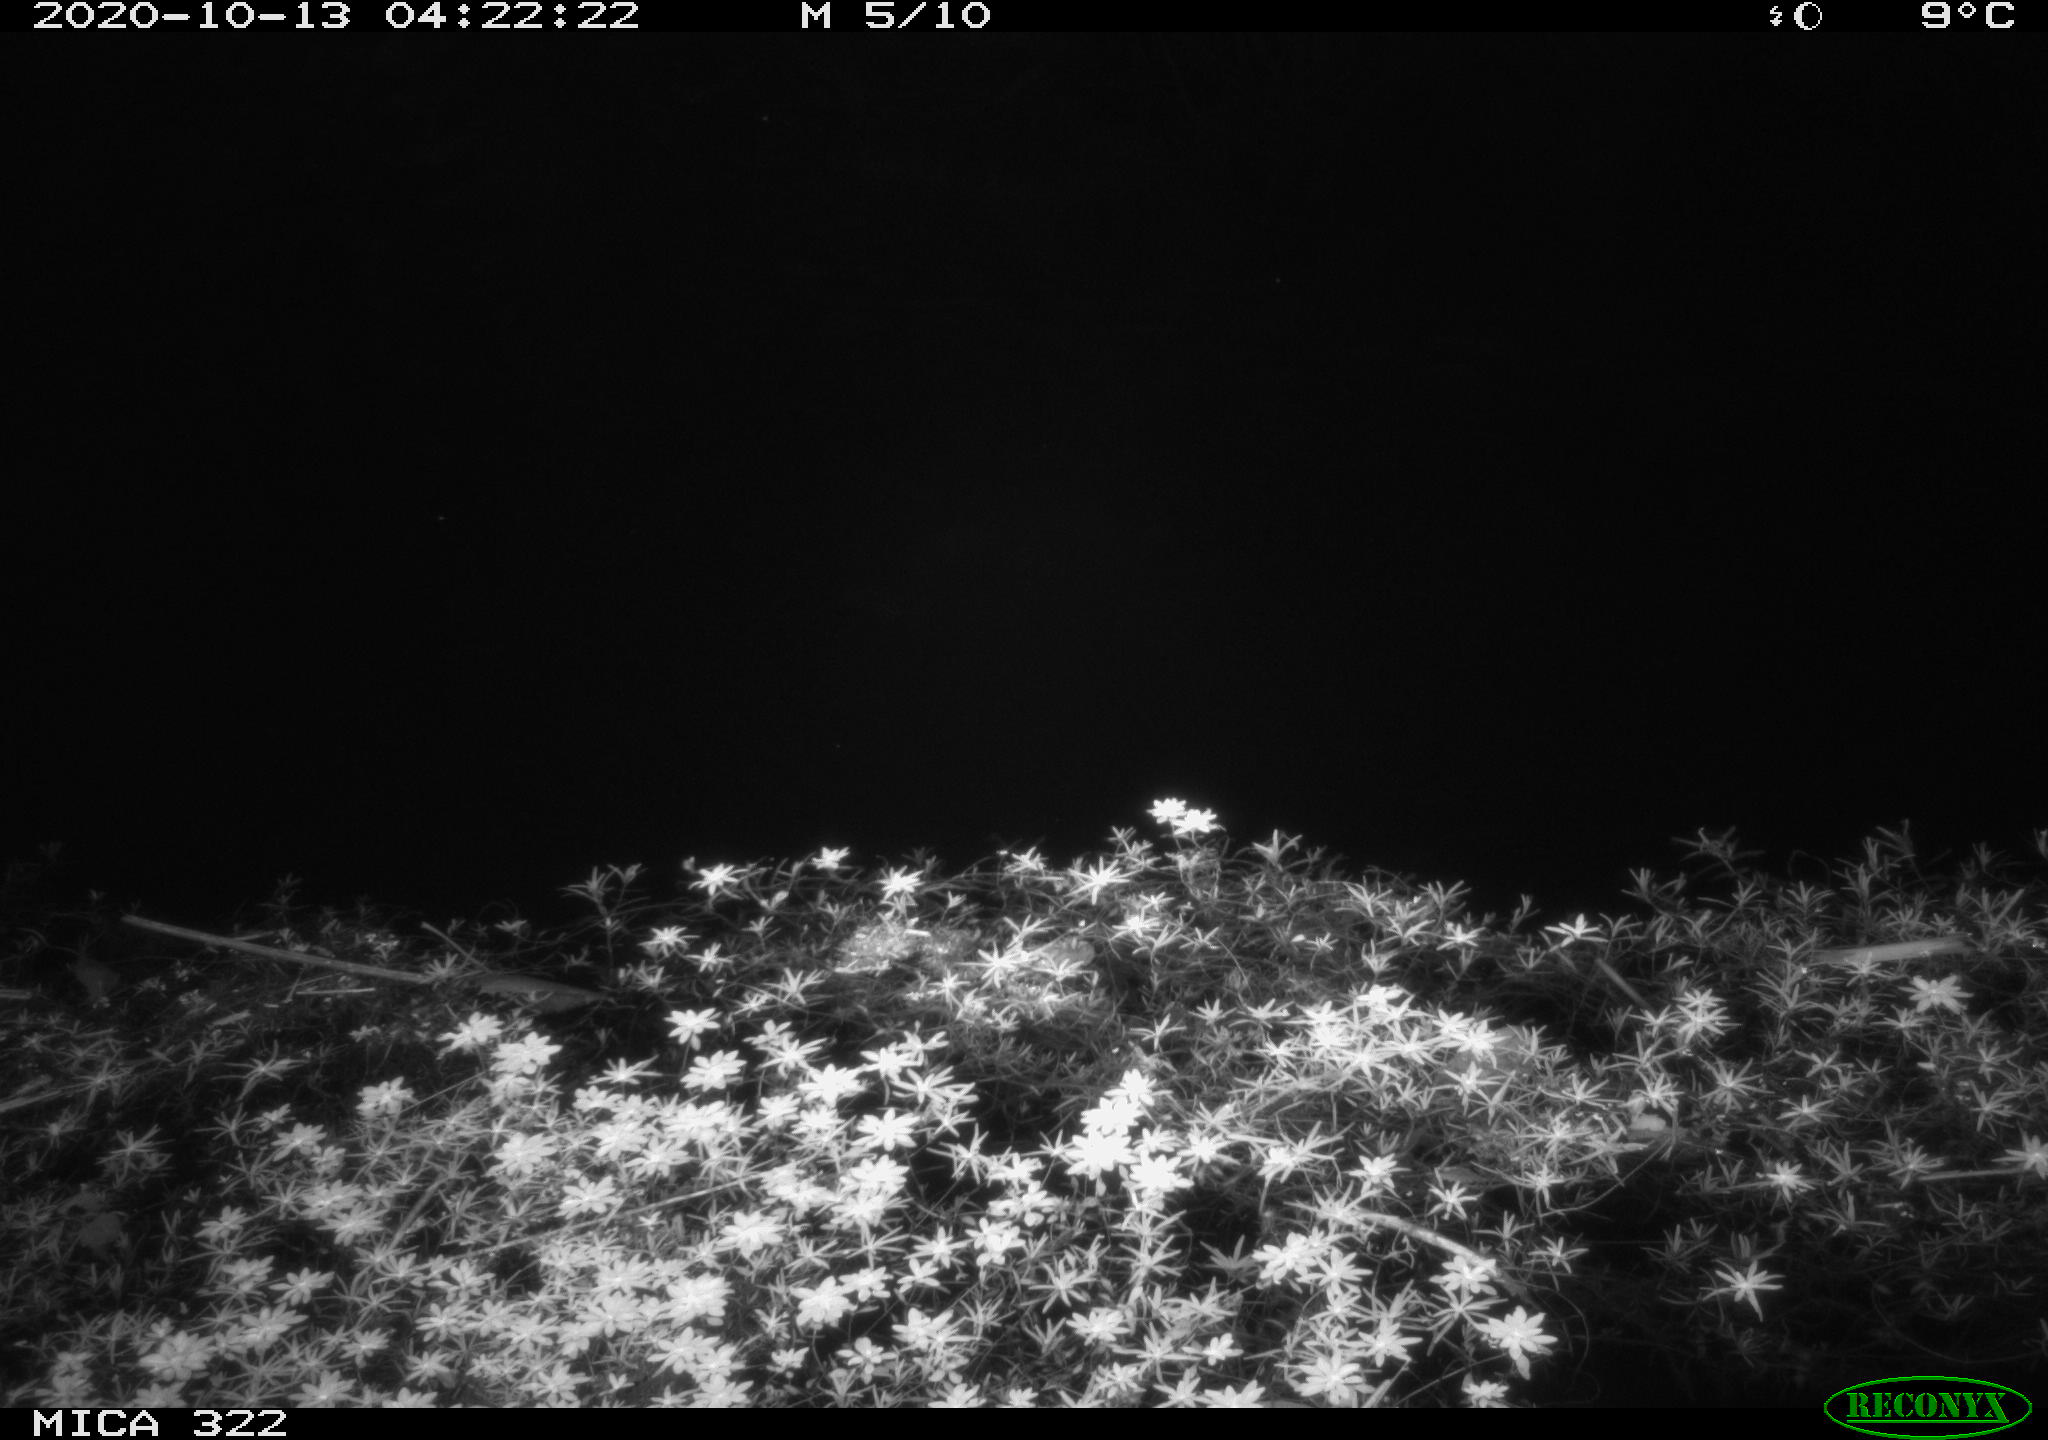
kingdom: Animalia
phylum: Chordata
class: Mammalia
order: Rodentia
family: Muridae
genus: Rattus
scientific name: Rattus norvegicus
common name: Brown rat
